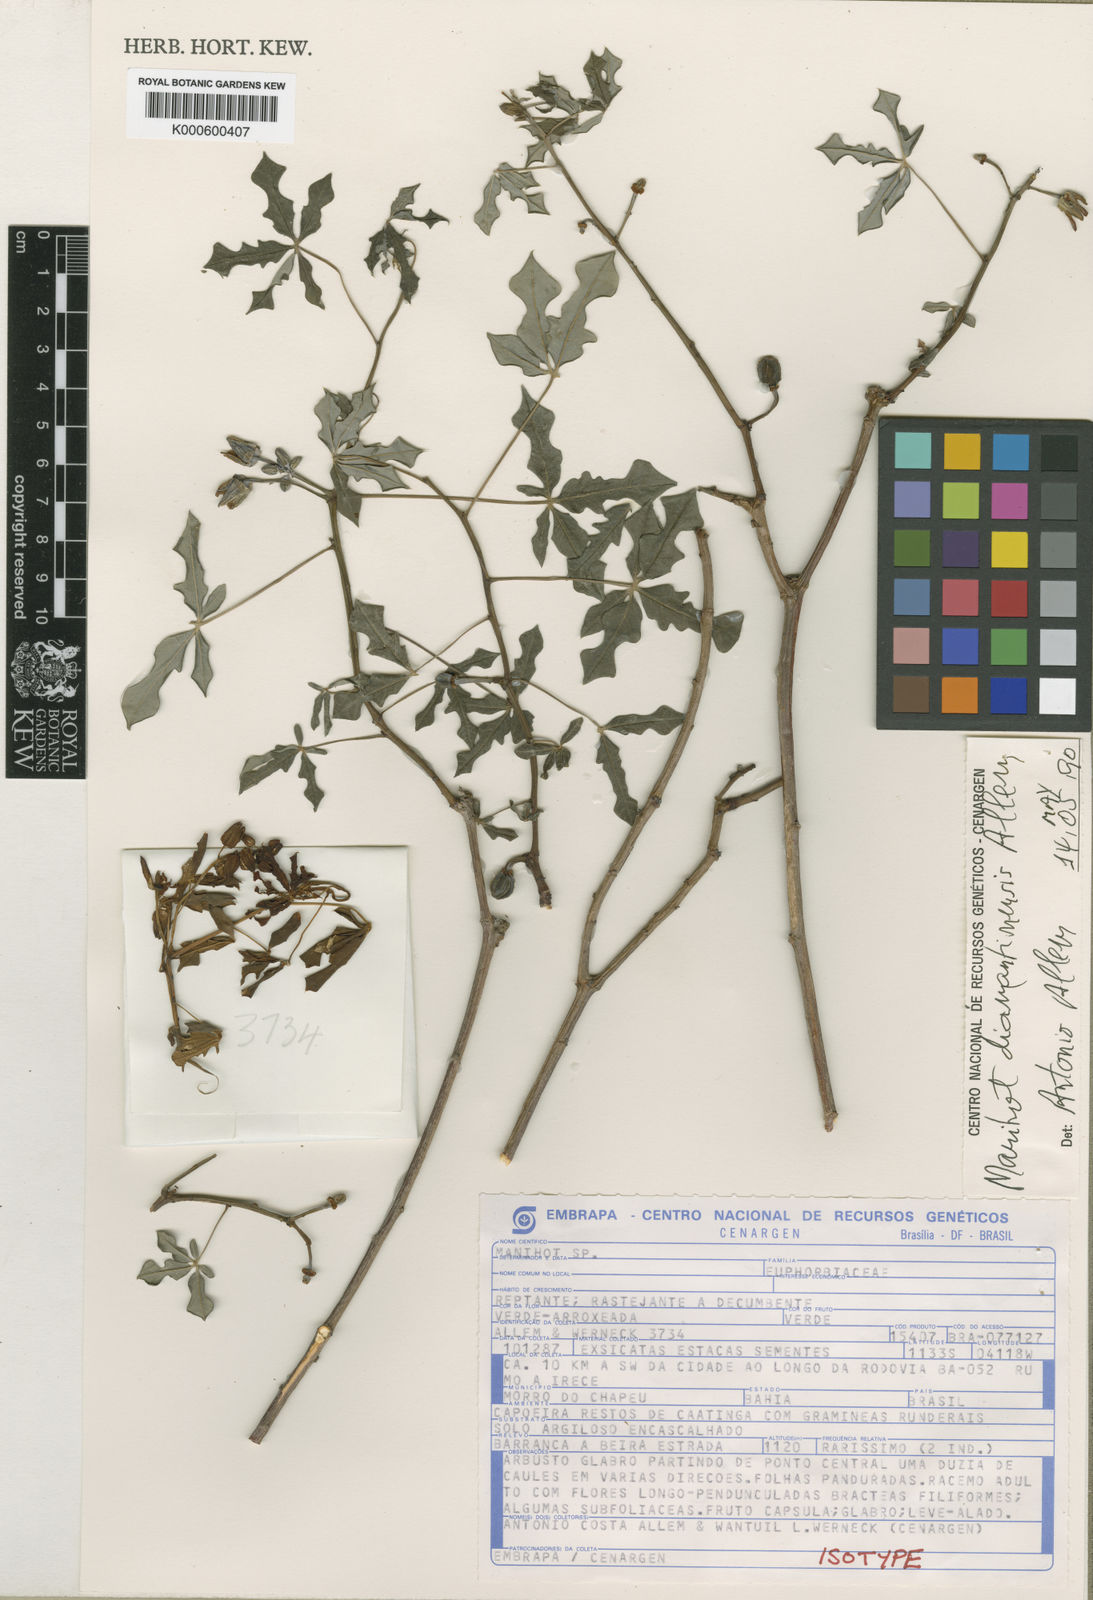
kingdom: Plantae
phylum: Tracheophyta
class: Magnoliopsida
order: Malpighiales
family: Euphorbiaceae
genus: Manihot
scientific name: Manihot diamantinensis
